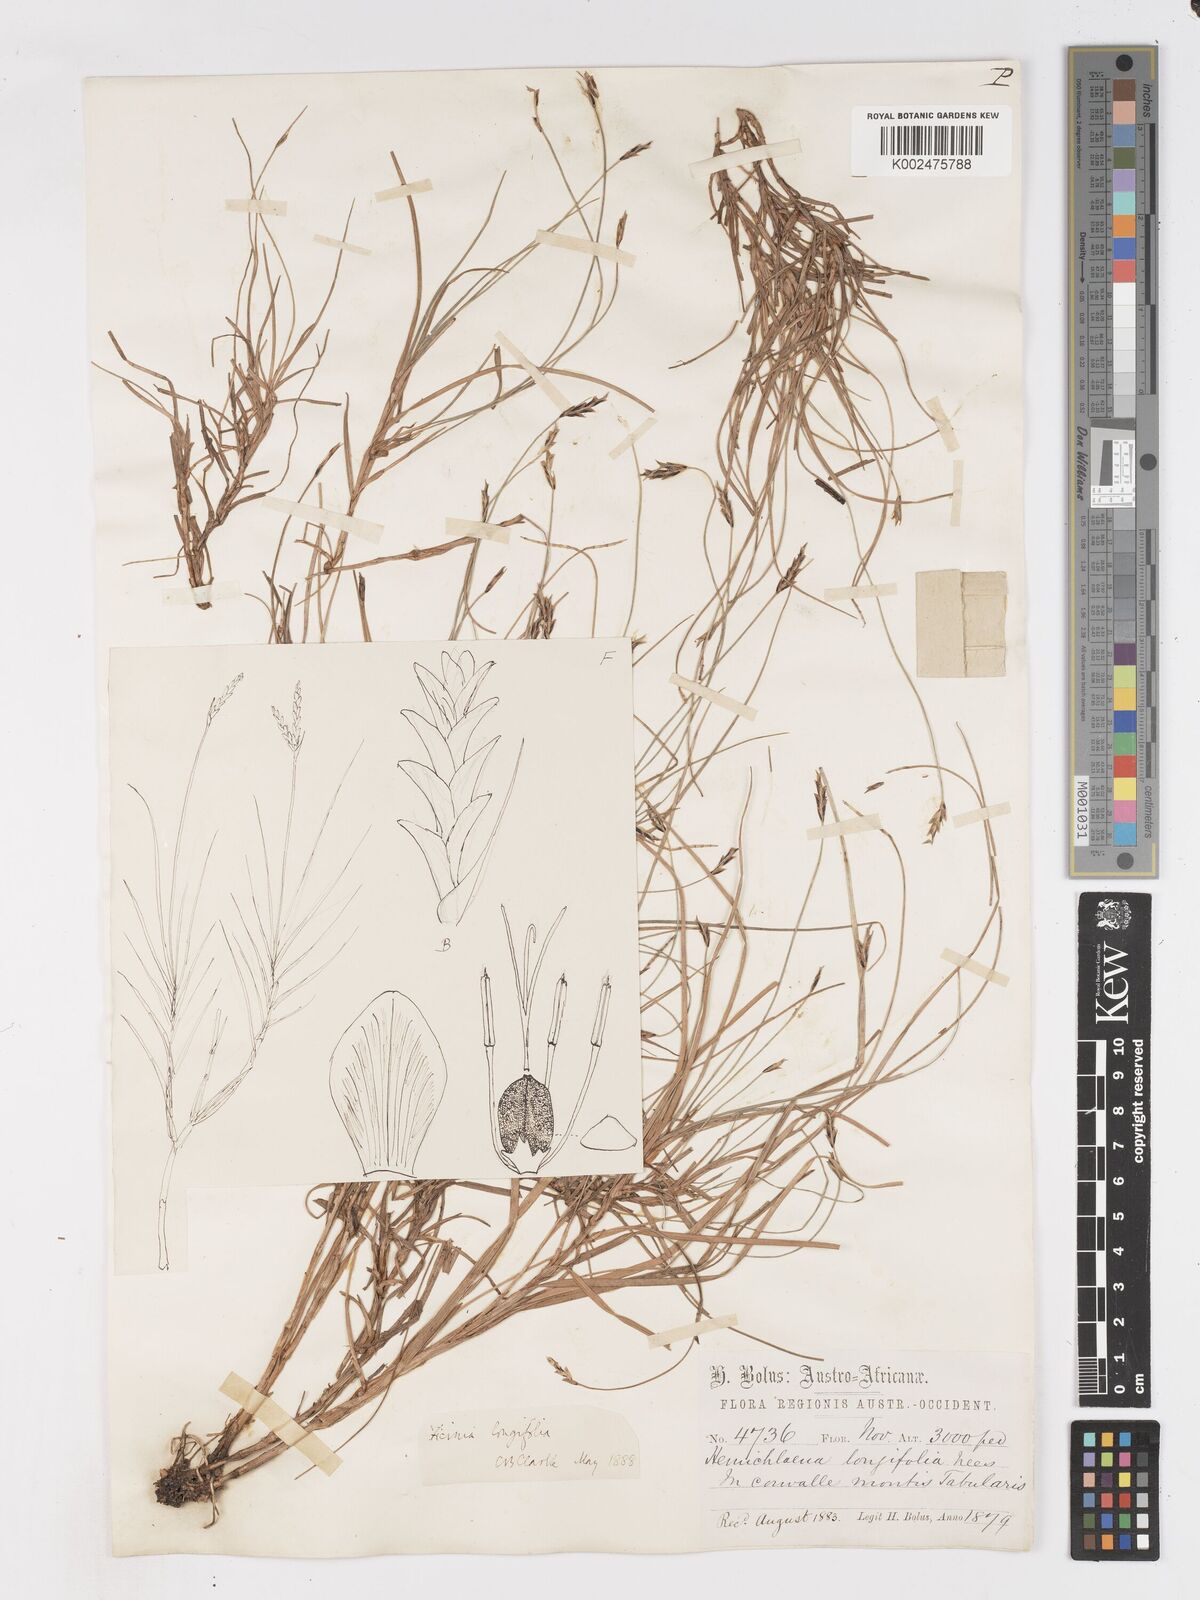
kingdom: Plantae
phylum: Tracheophyta
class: Liliopsida
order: Poales
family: Cyperaceae
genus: Ficinia
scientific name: Ficinia angustifolia
